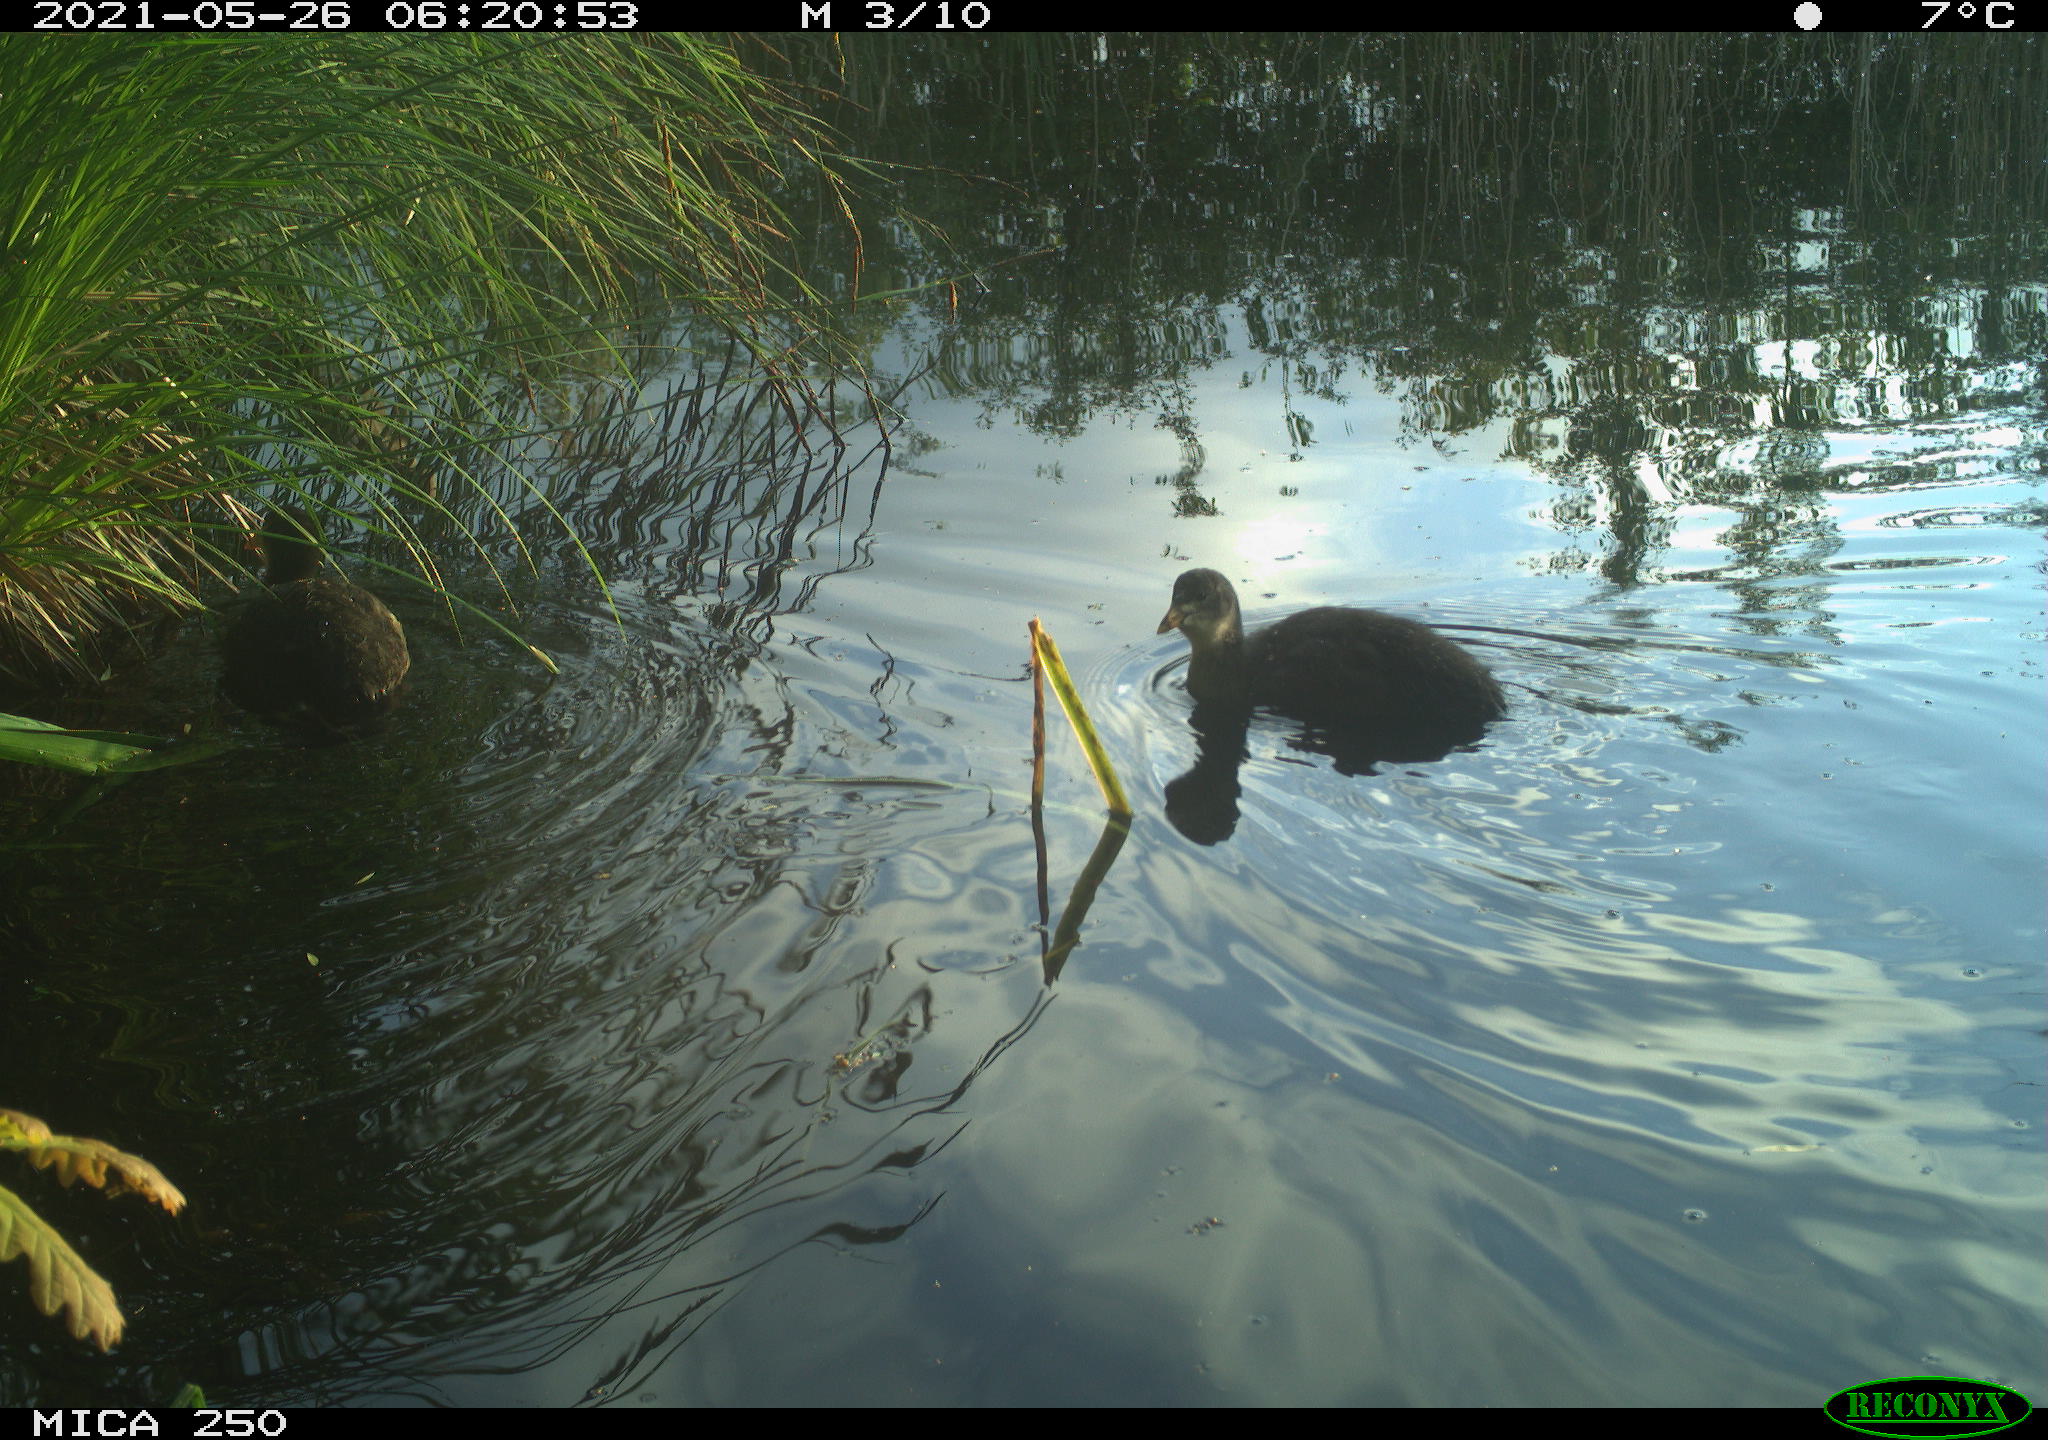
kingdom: Animalia
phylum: Chordata
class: Aves
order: Gruiformes
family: Rallidae
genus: Gallinula
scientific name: Gallinula chloropus
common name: Common moorhen
